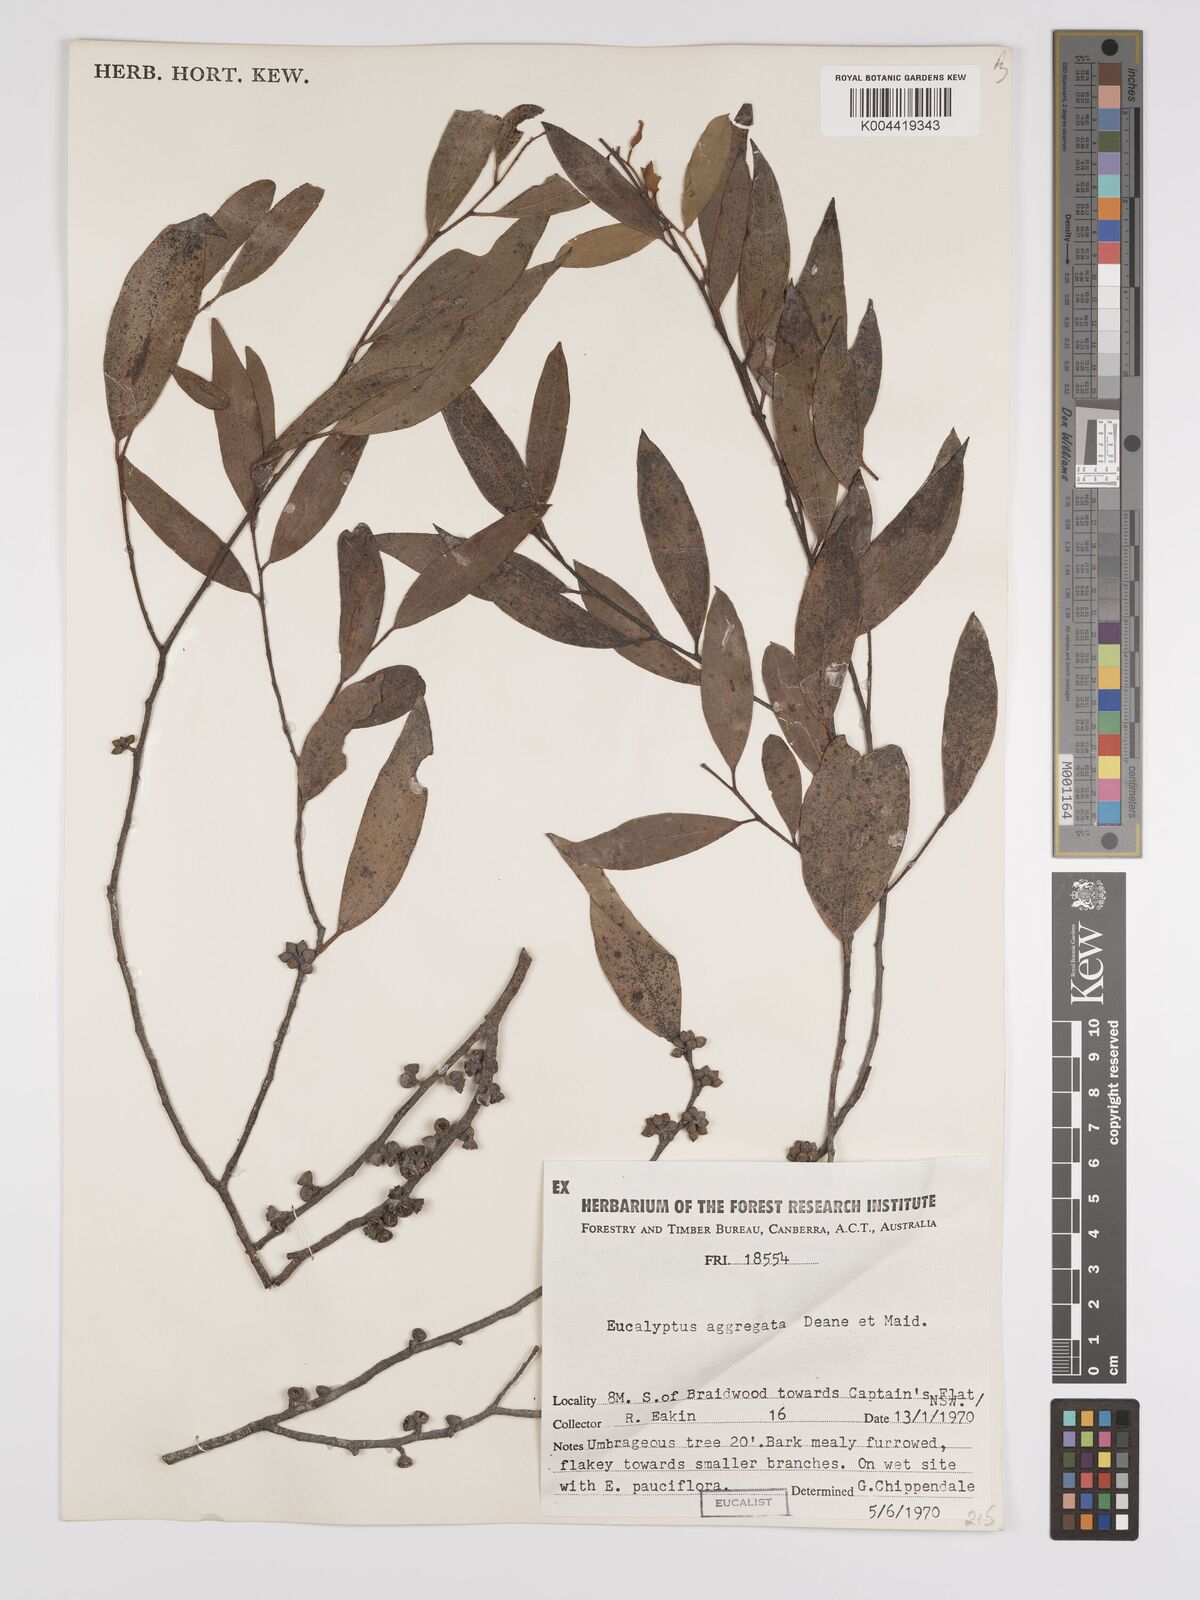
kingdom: Plantae
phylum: Tracheophyta
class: Magnoliopsida
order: Myrtales
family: Myrtaceae
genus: Eucalyptus
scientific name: Eucalyptus aggregata
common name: Black gum
